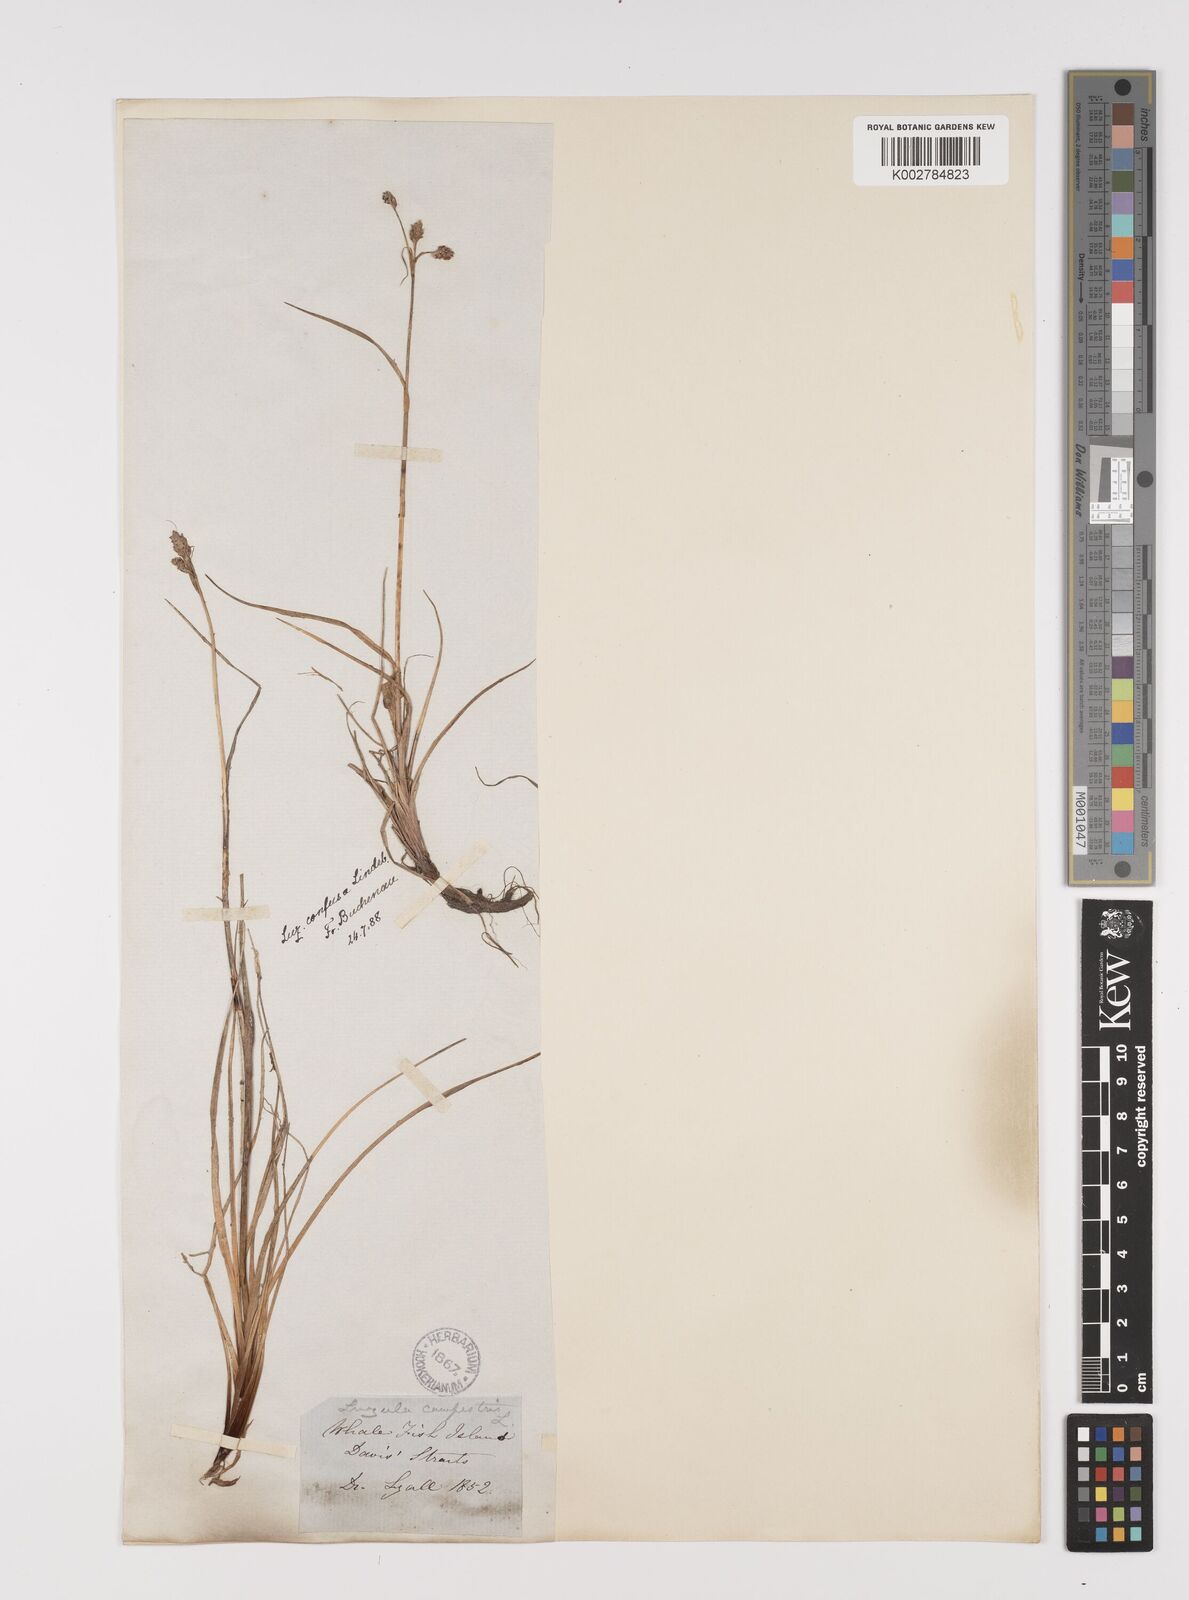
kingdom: Plantae
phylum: Tracheophyta
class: Liliopsida
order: Poales
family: Juncaceae
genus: Luzula
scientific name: Luzula confusa
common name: Northern wood rush
